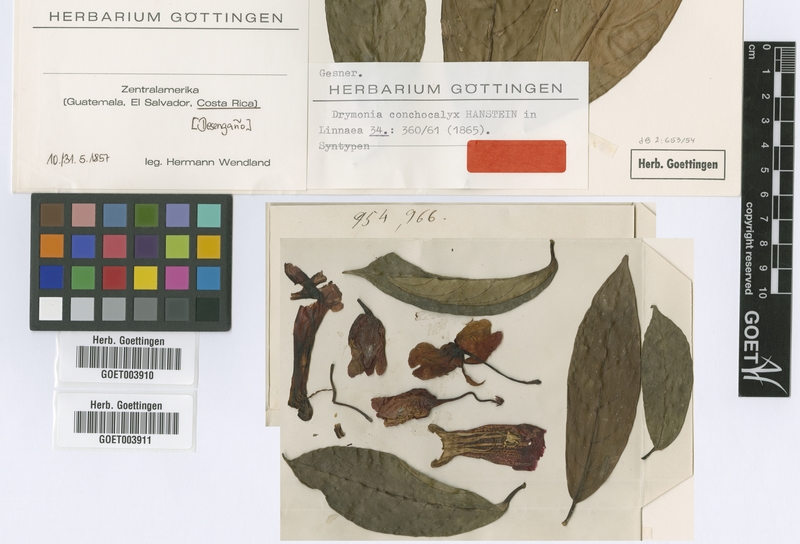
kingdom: Plantae
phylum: Tracheophyta
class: Magnoliopsida
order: Lamiales
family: Gesneriaceae
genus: Drymonia
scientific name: Drymonia conchocalyx
